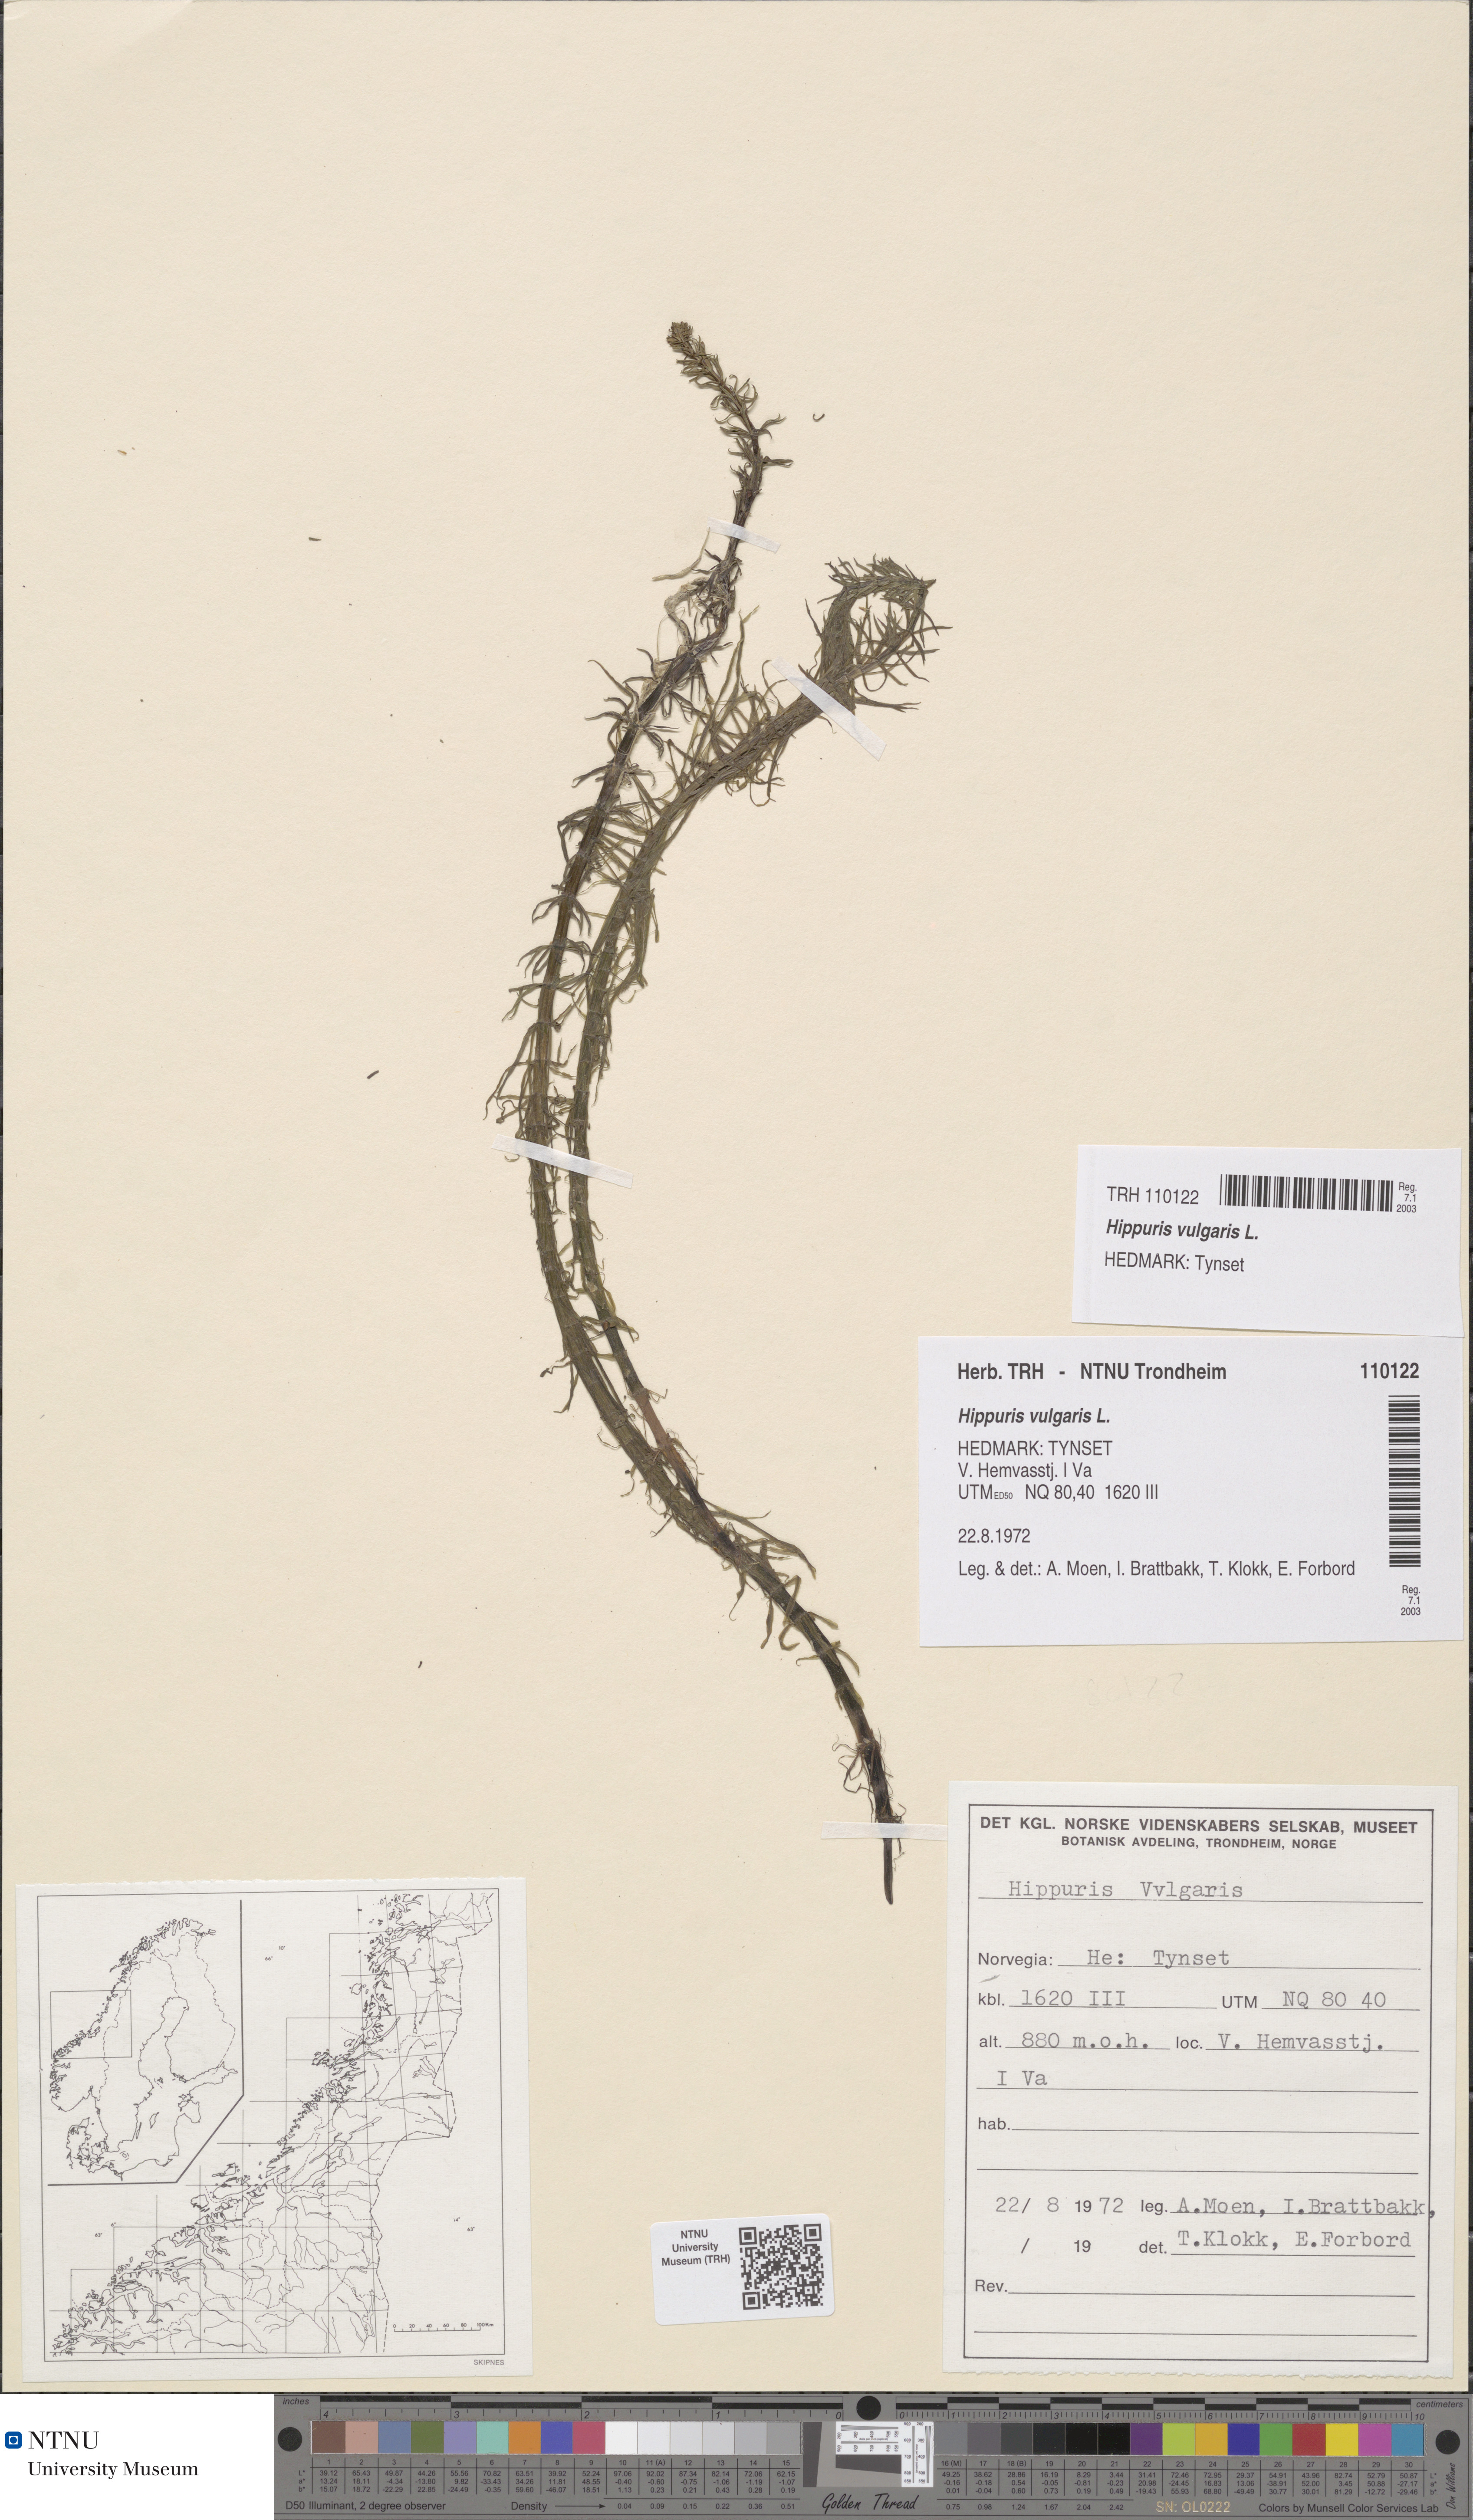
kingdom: Plantae
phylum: Tracheophyta
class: Magnoliopsida
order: Lamiales
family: Plantaginaceae
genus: Hippuris
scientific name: Hippuris vulgaris
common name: Mare's-tail
